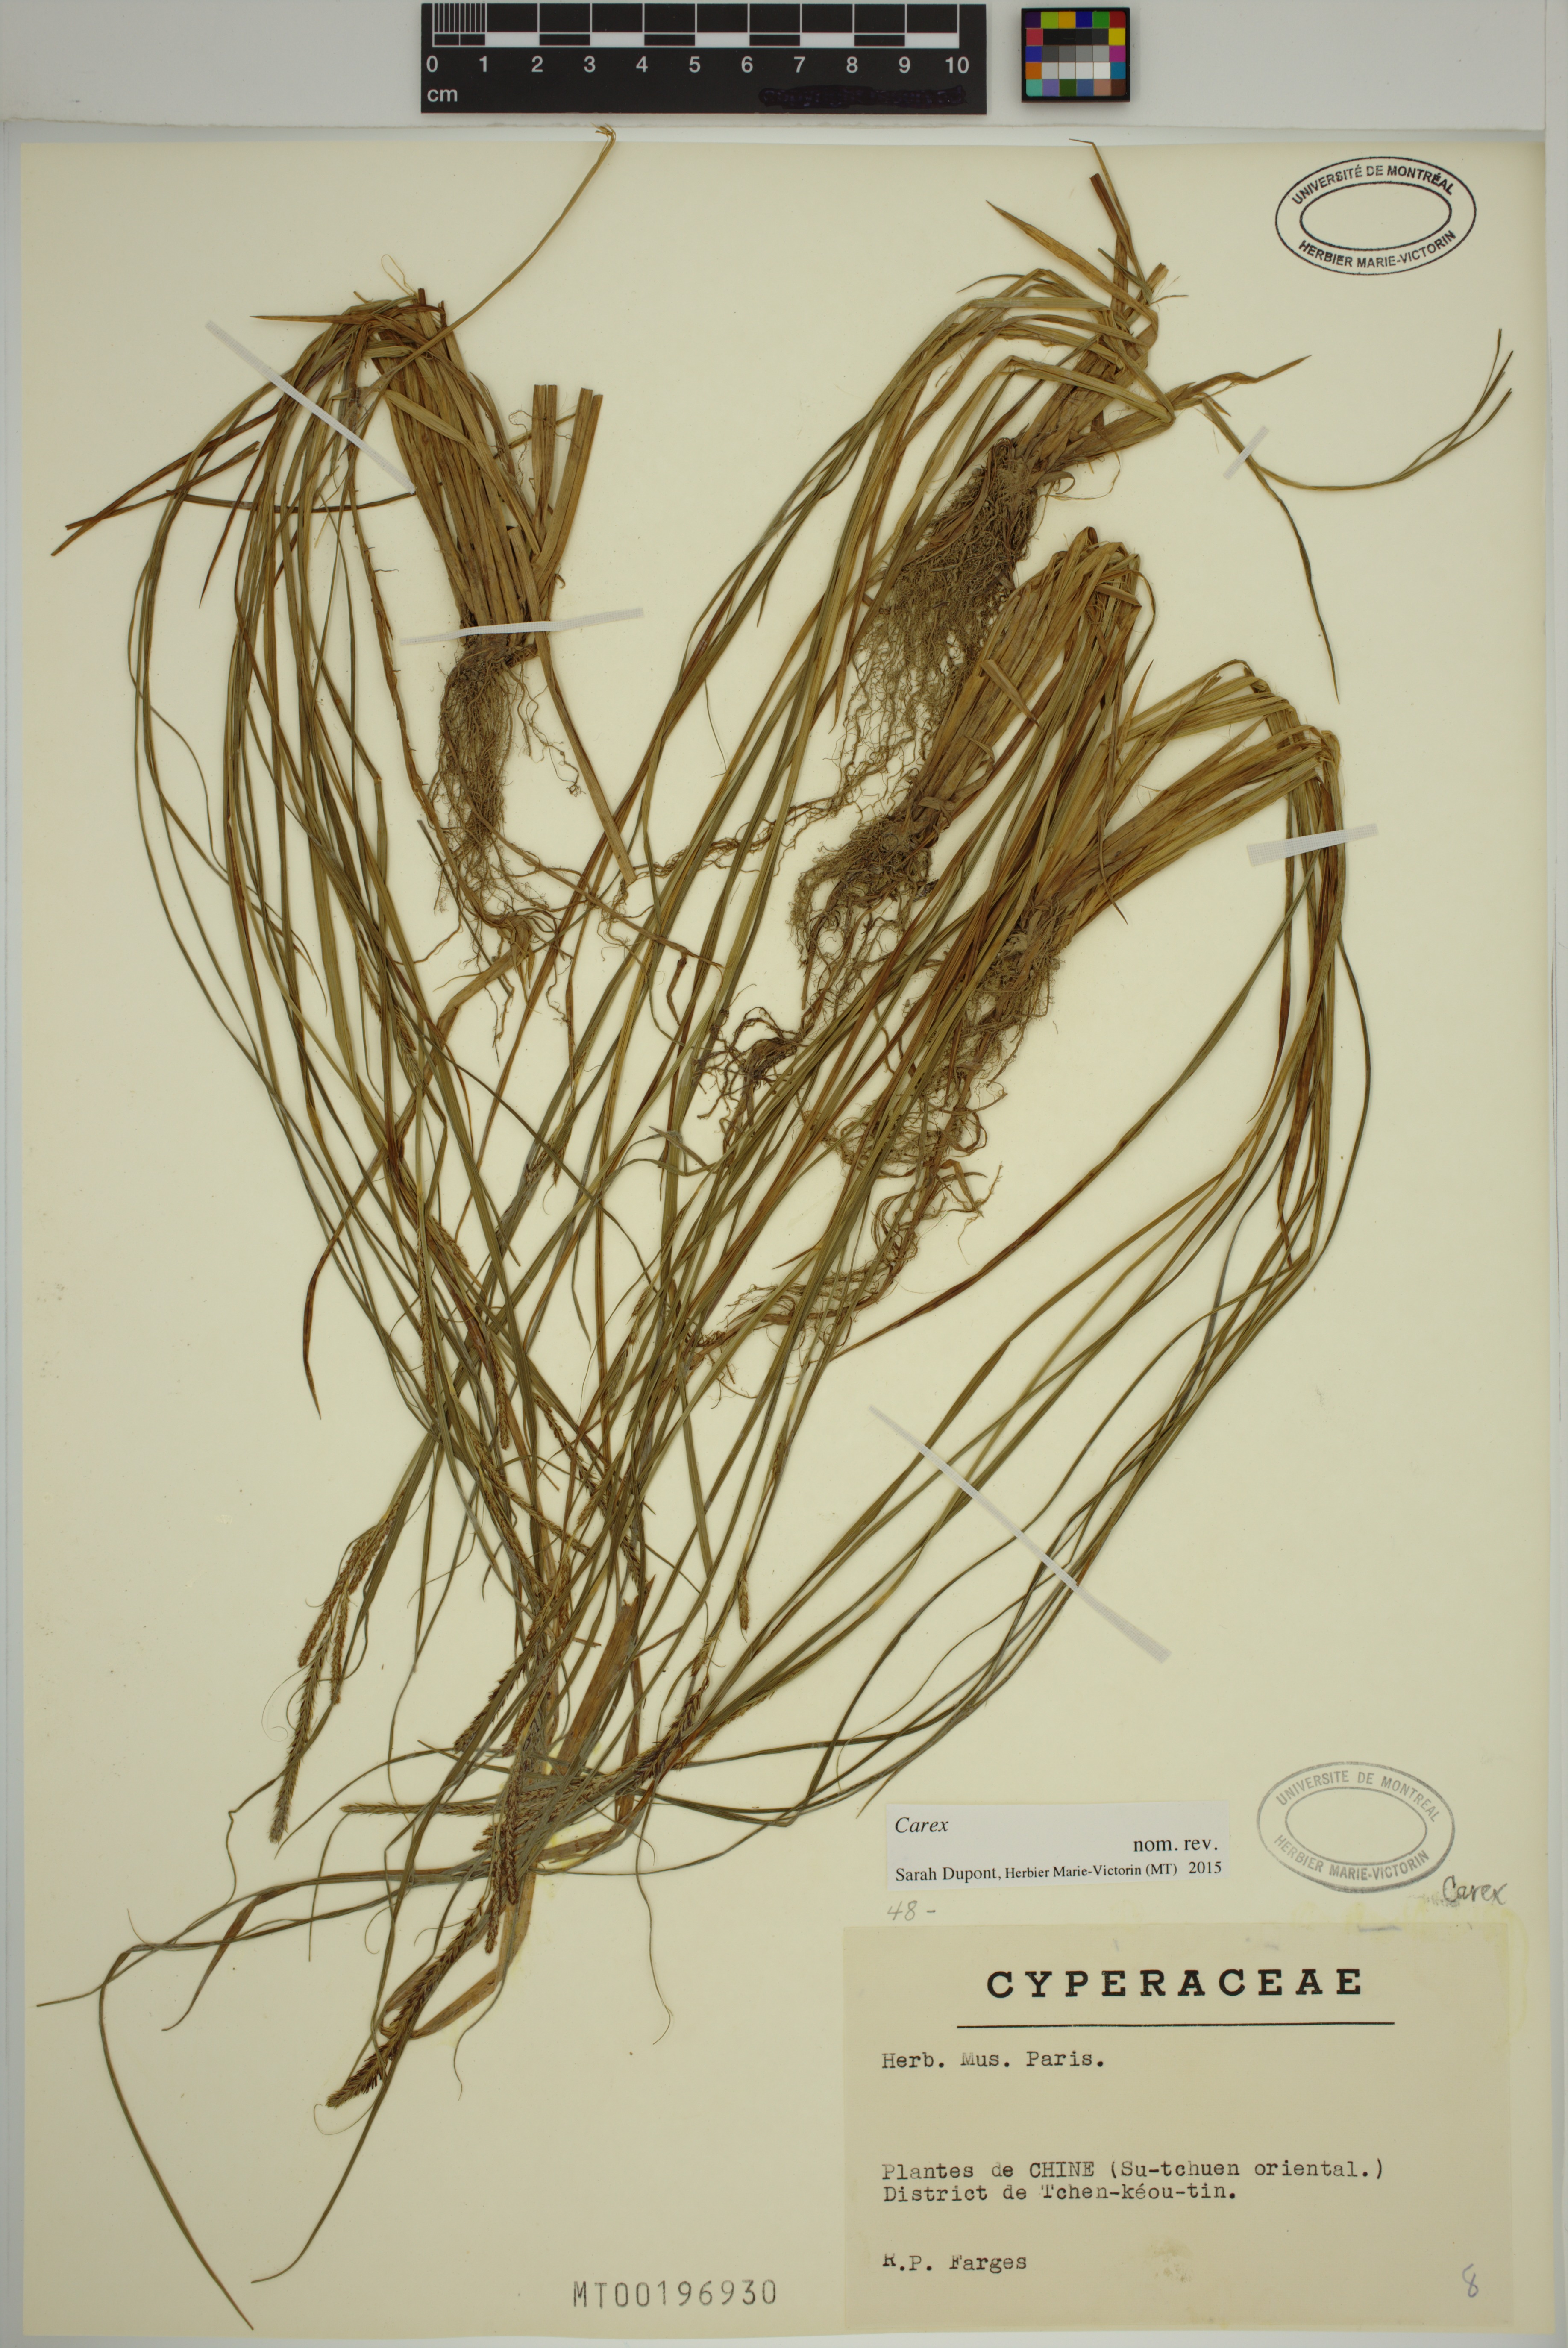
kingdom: Plantae
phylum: Tracheophyta
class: Liliopsida
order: Poales
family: Cyperaceae
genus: Carex
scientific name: Carex
